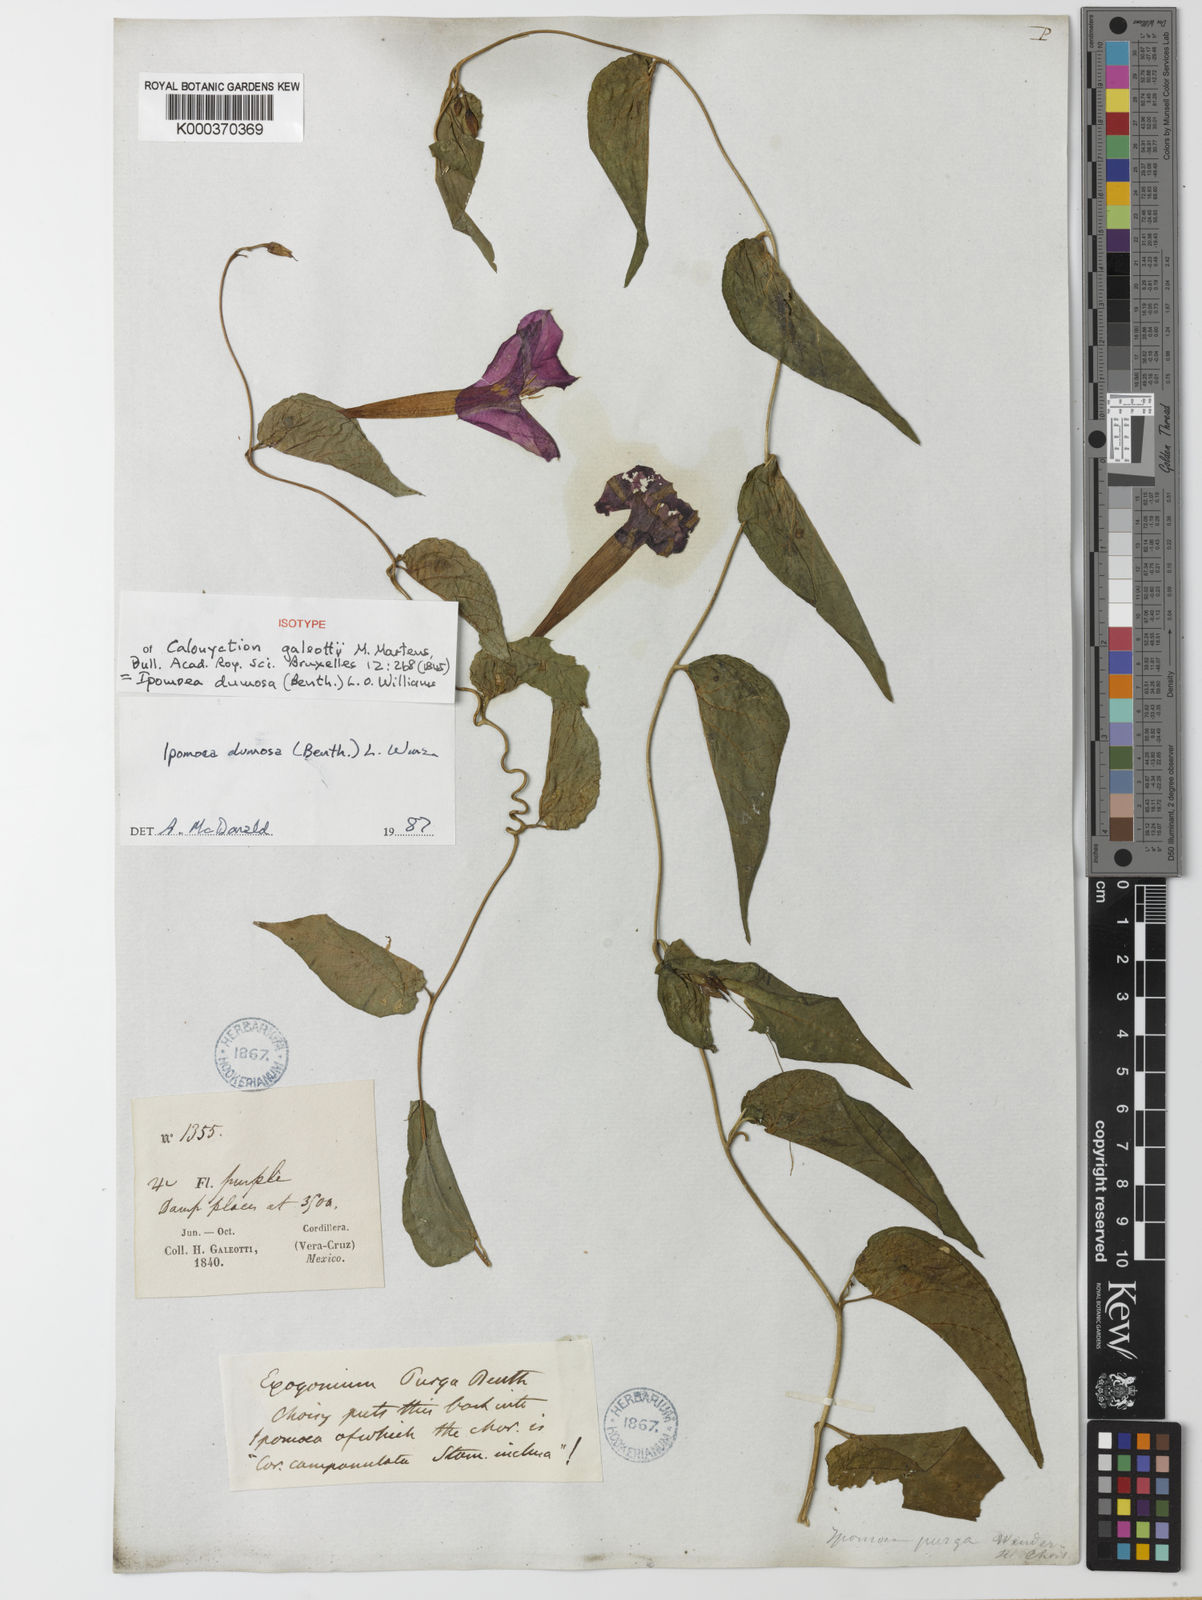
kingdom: Plantae
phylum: Tracheophyta
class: Magnoliopsida
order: Solanales
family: Convolvulaceae
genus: Ipomoea
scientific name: Ipomoea dumosa
